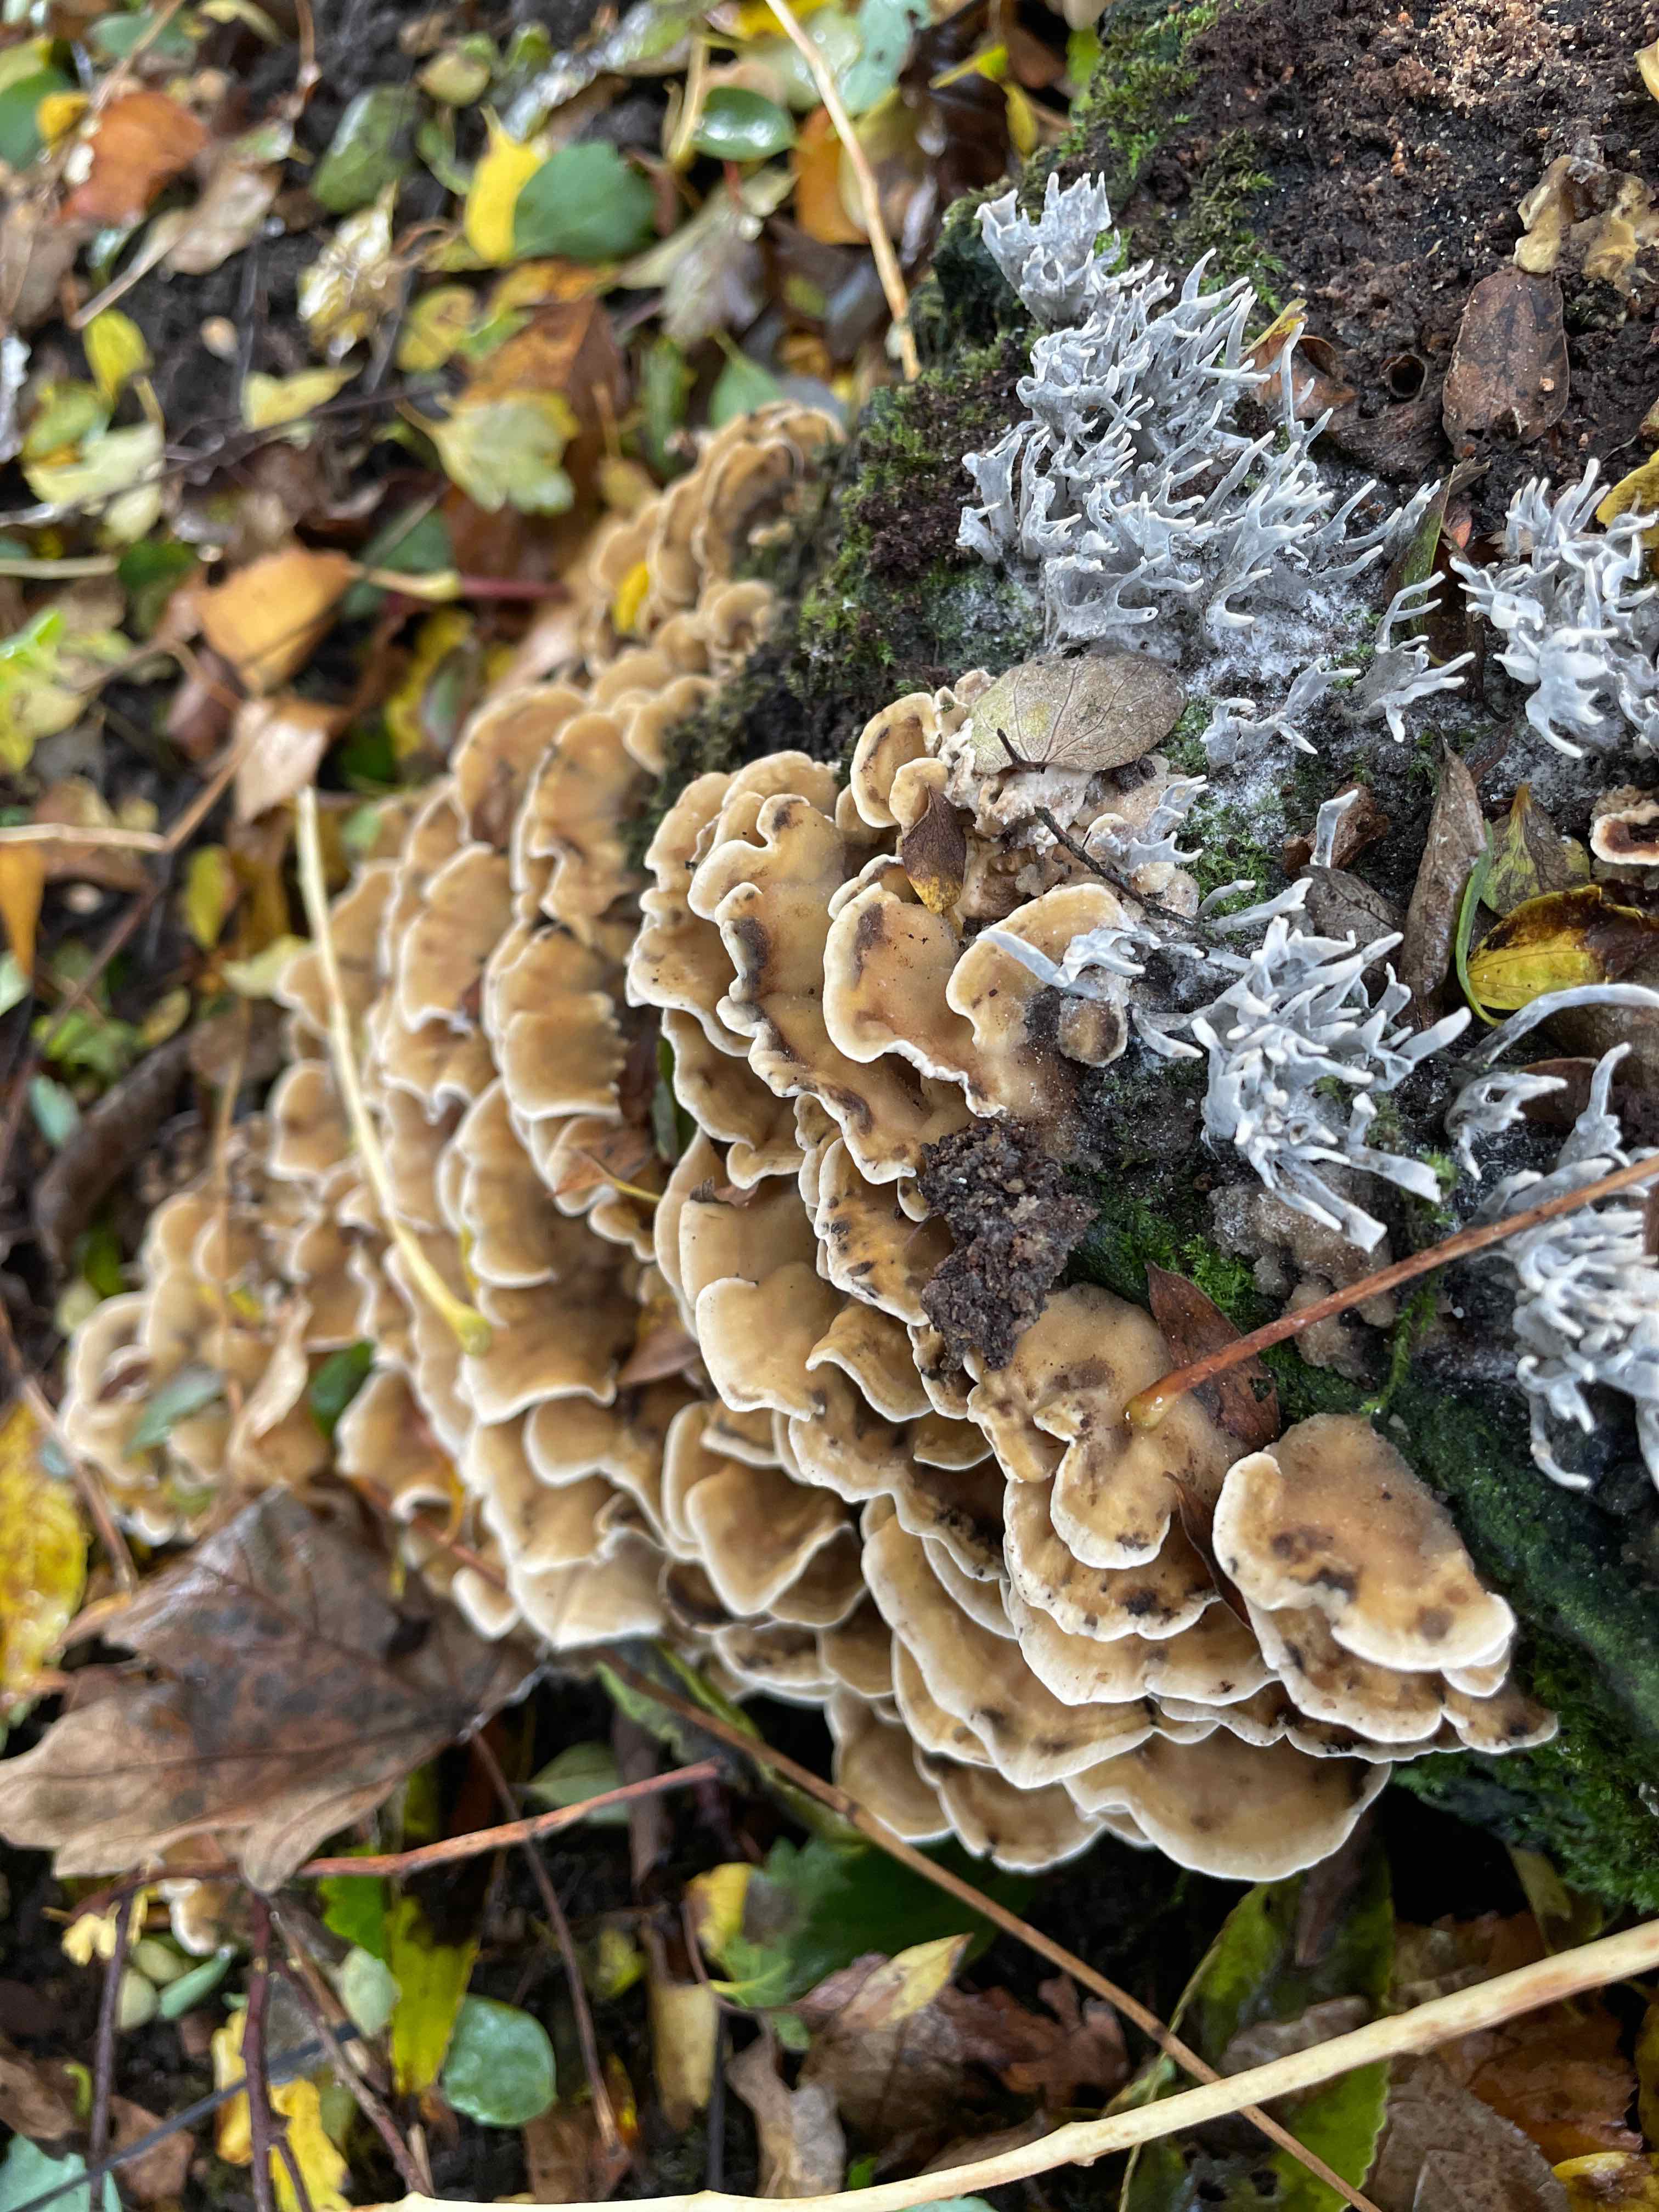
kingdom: Fungi
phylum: Basidiomycota
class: Agaricomycetes
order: Polyporales
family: Phanerochaetaceae
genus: Bjerkandera
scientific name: Bjerkandera adusta
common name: sveden sodporesvamp
